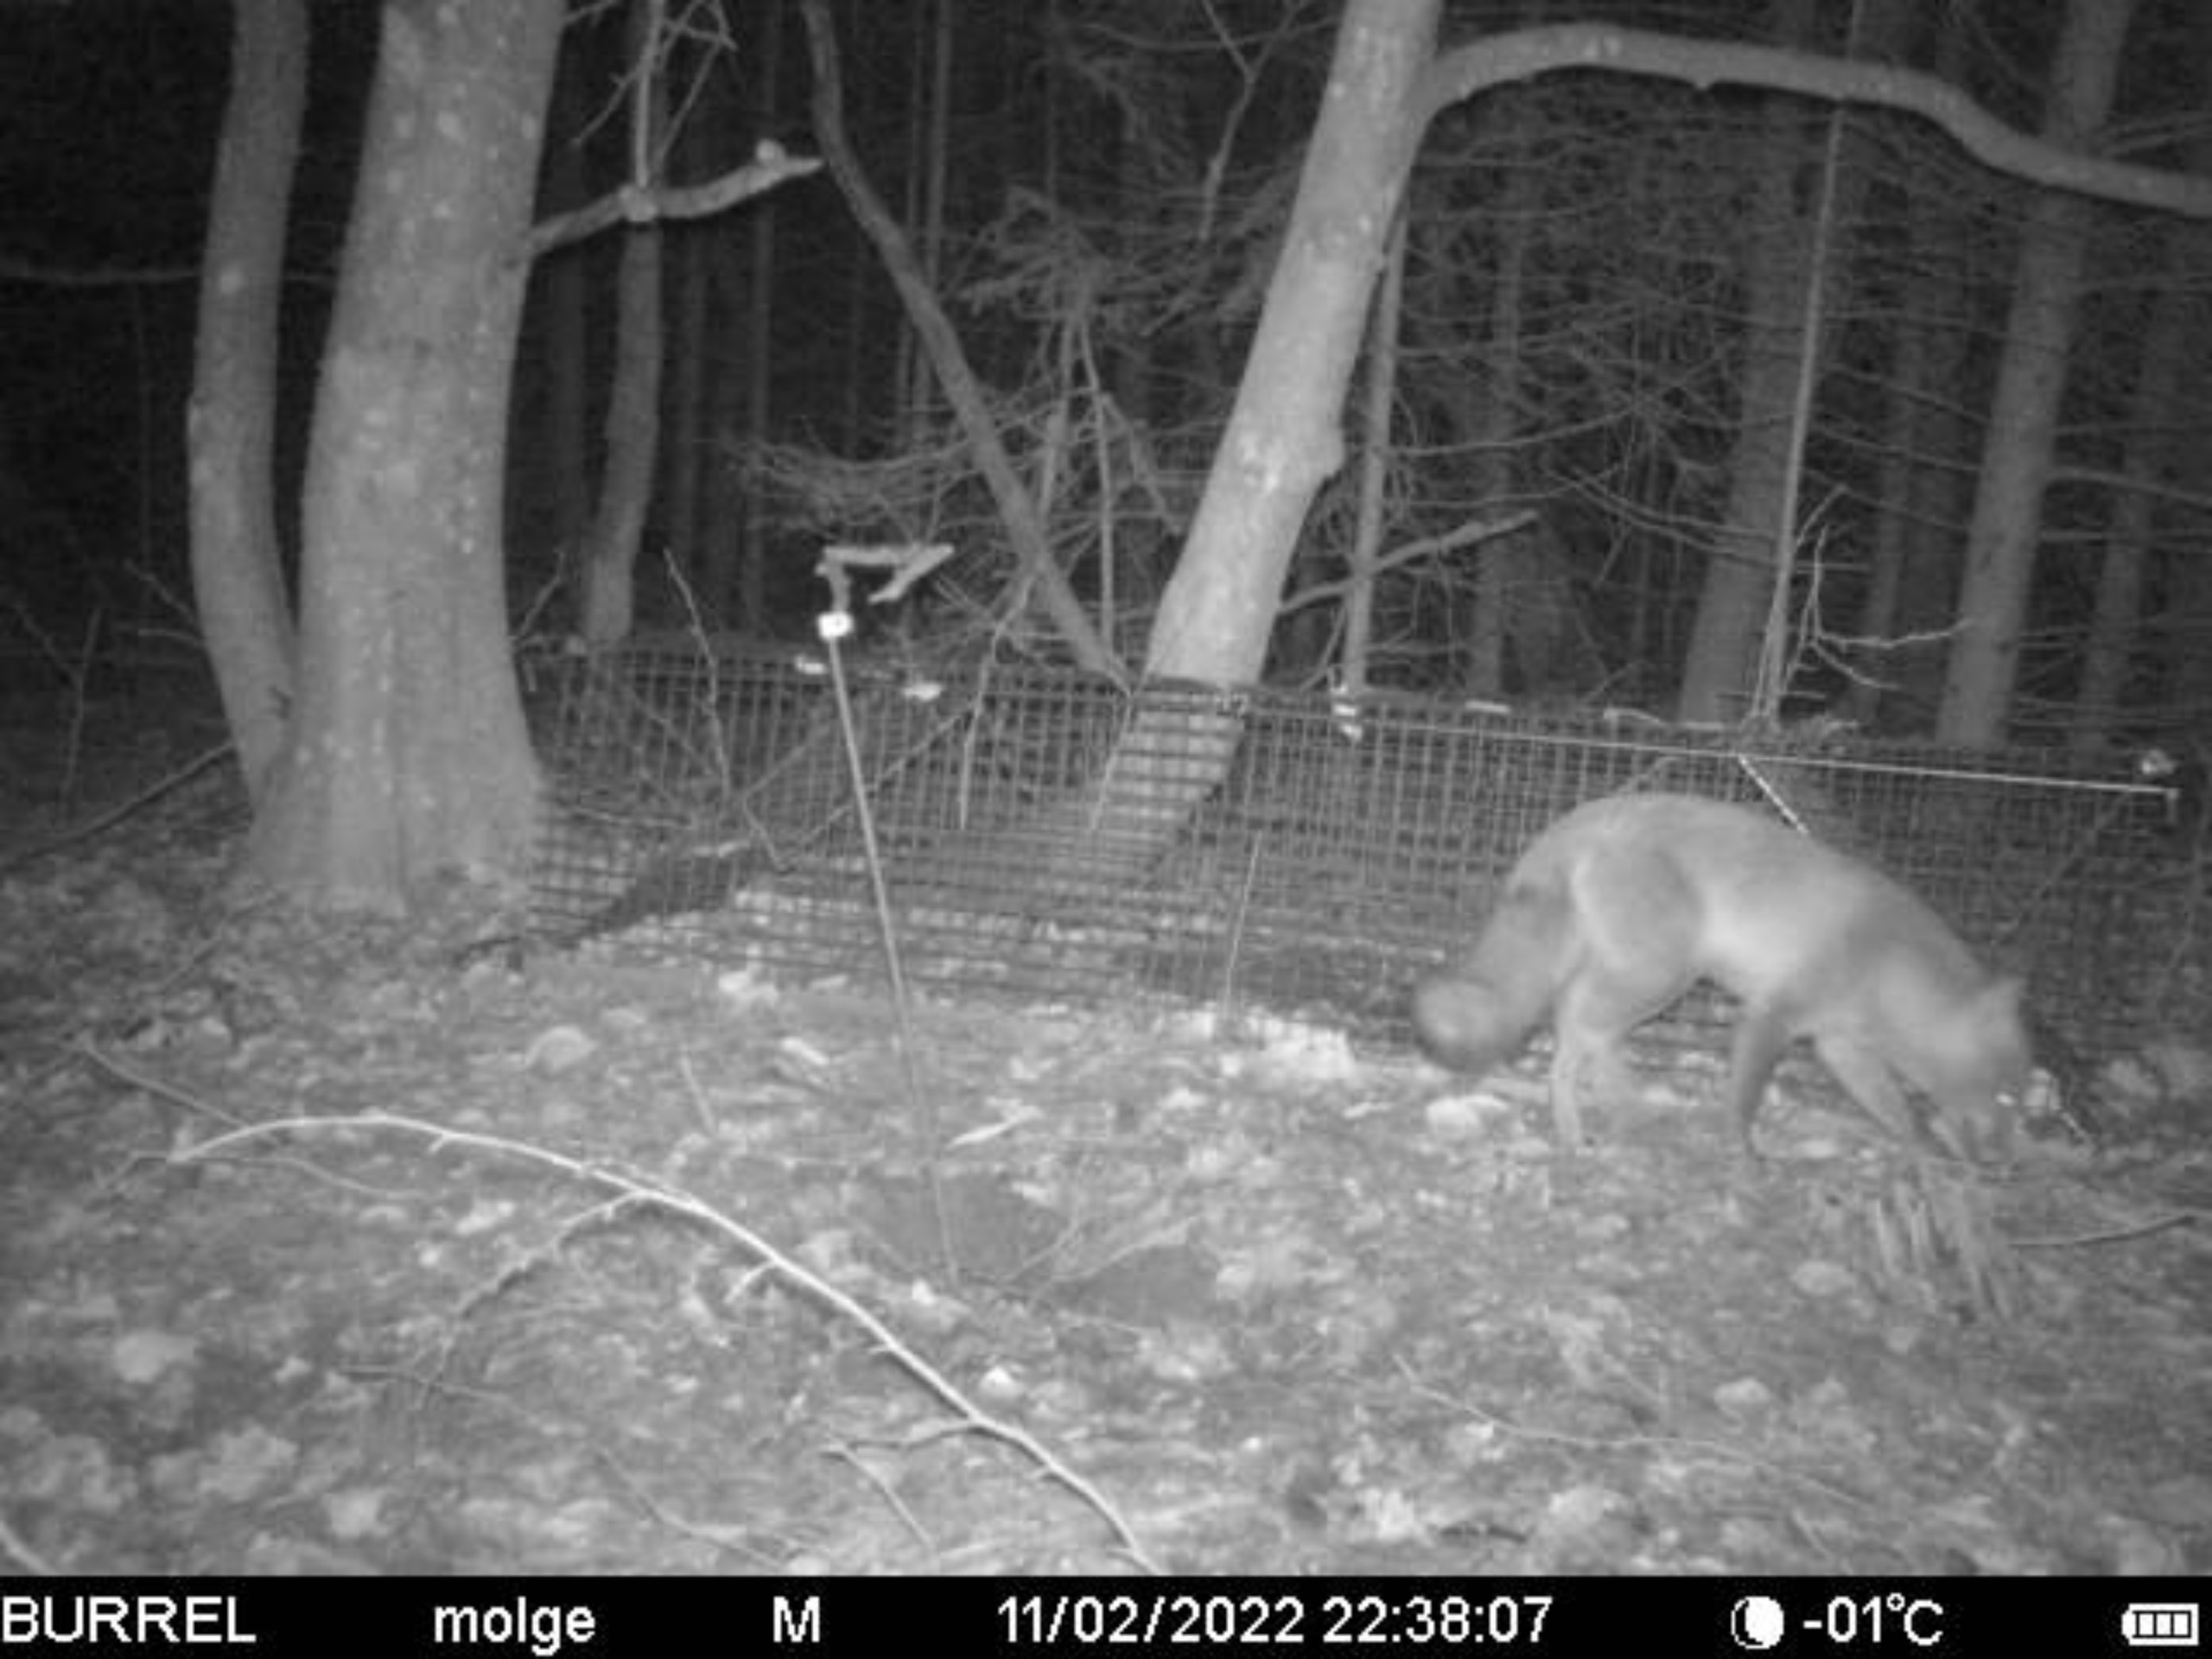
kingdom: Animalia
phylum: Chordata
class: Mammalia
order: Carnivora
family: Canidae
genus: Vulpes
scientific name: Vulpes vulpes
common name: Ræv
